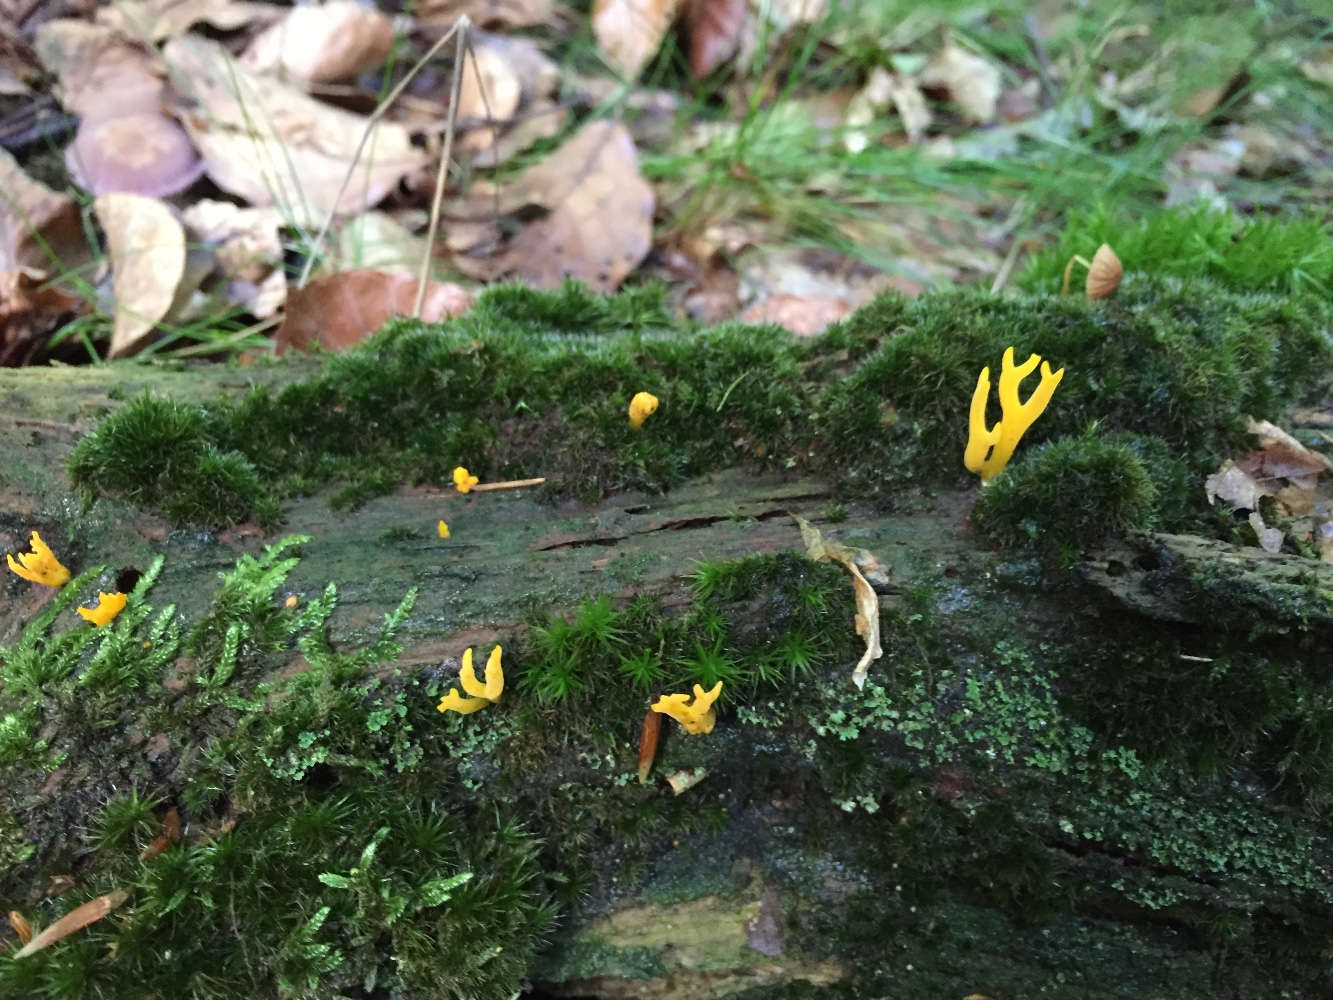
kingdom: Fungi
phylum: Basidiomycota
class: Dacrymycetes
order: Dacrymycetales
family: Dacrymycetaceae
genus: Calocera
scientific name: Calocera cornea
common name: liden guldgaffel
